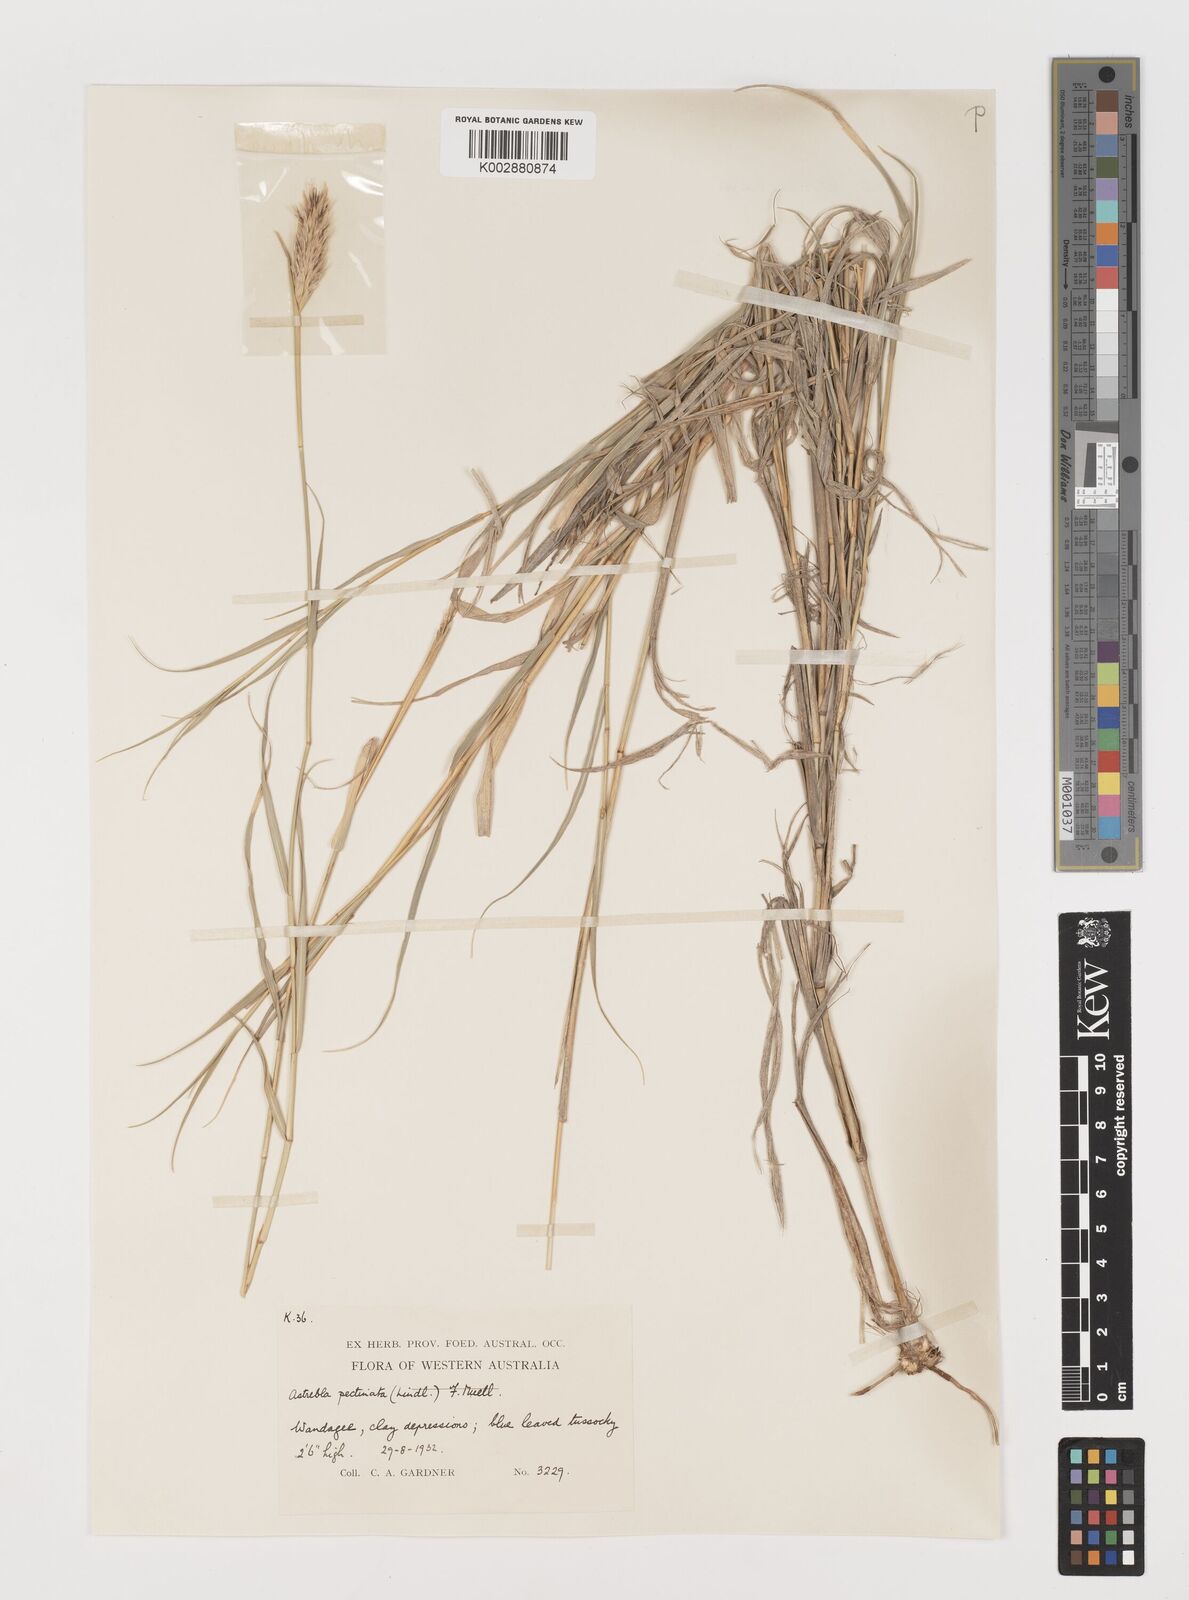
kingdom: Plantae
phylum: Tracheophyta
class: Liliopsida
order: Poales
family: Poaceae
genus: Astrebla
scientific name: Astrebla pectinata
